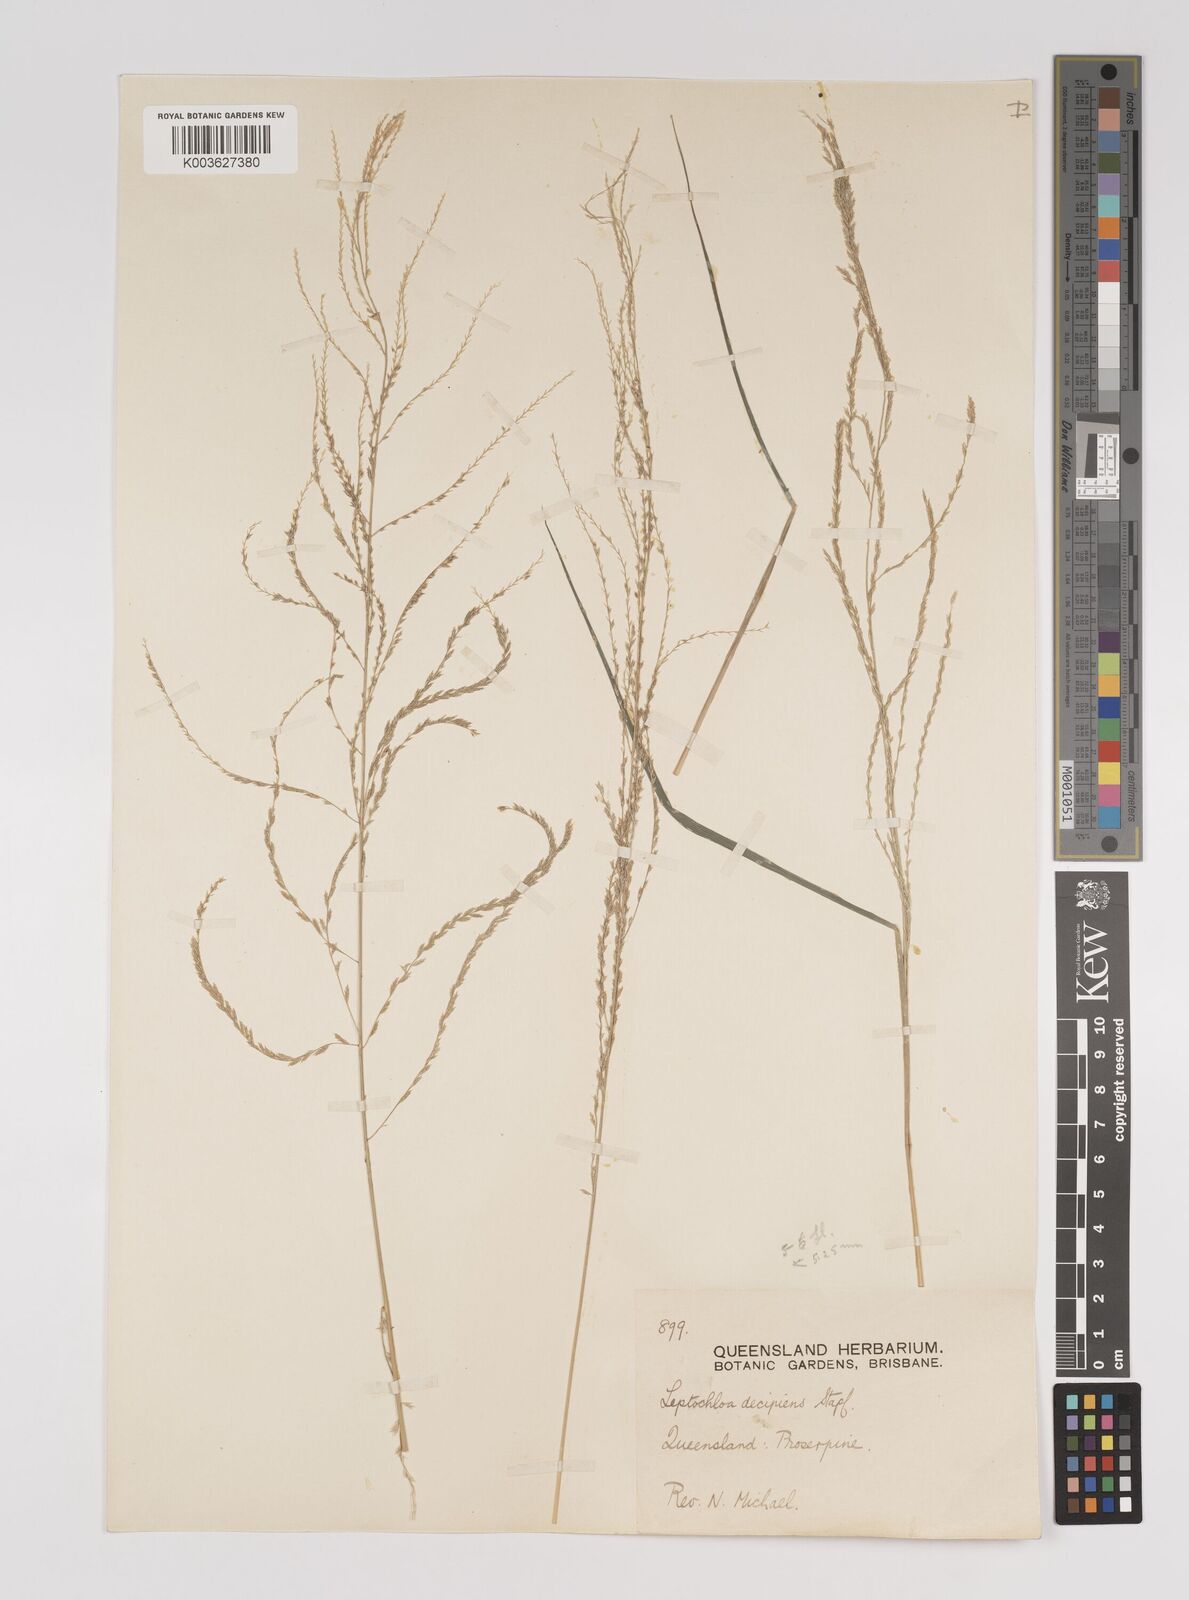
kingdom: Plantae
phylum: Tracheophyta
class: Liliopsida
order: Poales
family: Poaceae
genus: Leptochloa
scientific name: Leptochloa decipiens
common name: Australian sprangletop
